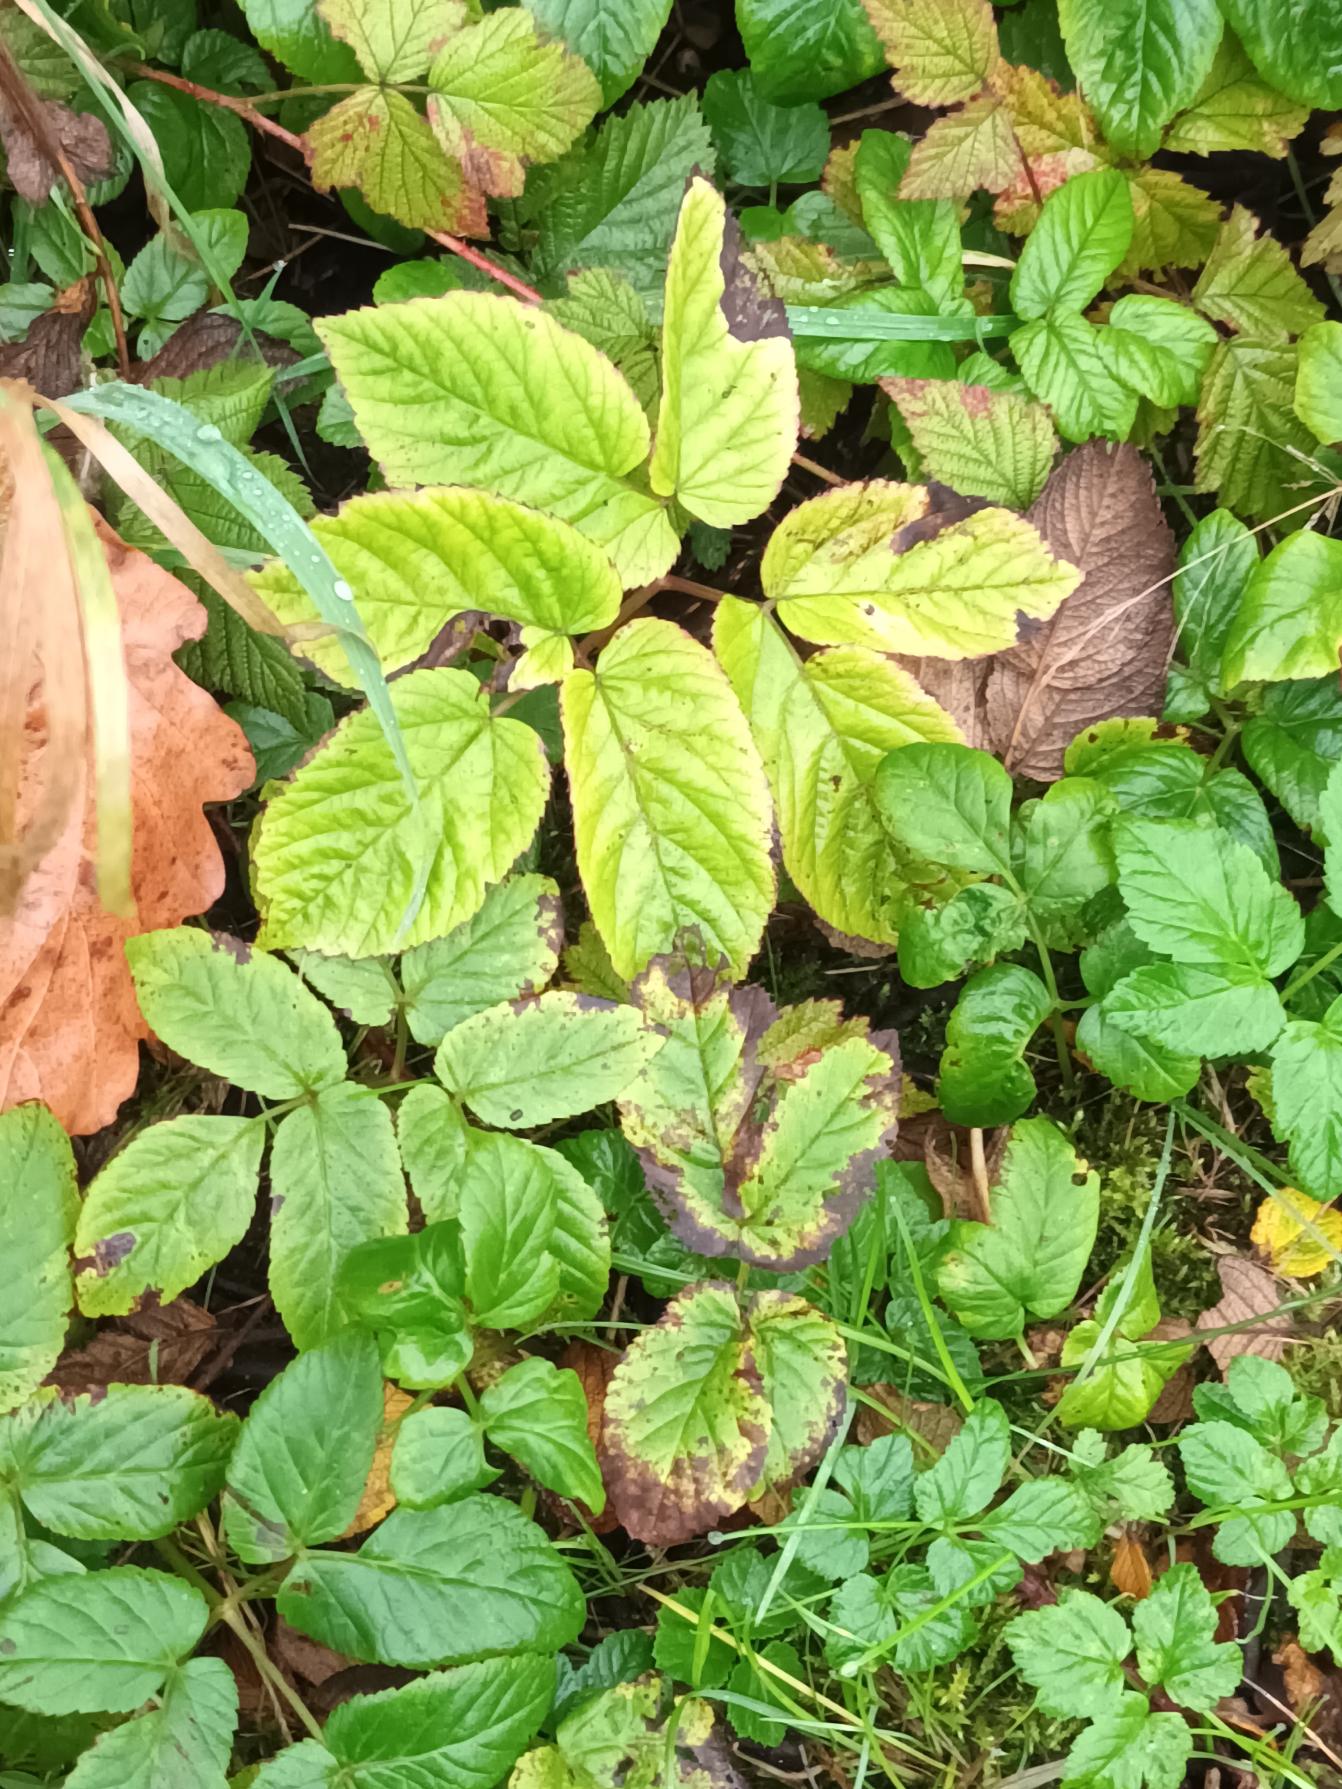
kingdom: Plantae
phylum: Tracheophyta
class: Magnoliopsida
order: Apiales
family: Apiaceae
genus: Aegopodium
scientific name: Aegopodium podagraria
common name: Skvalderkål
